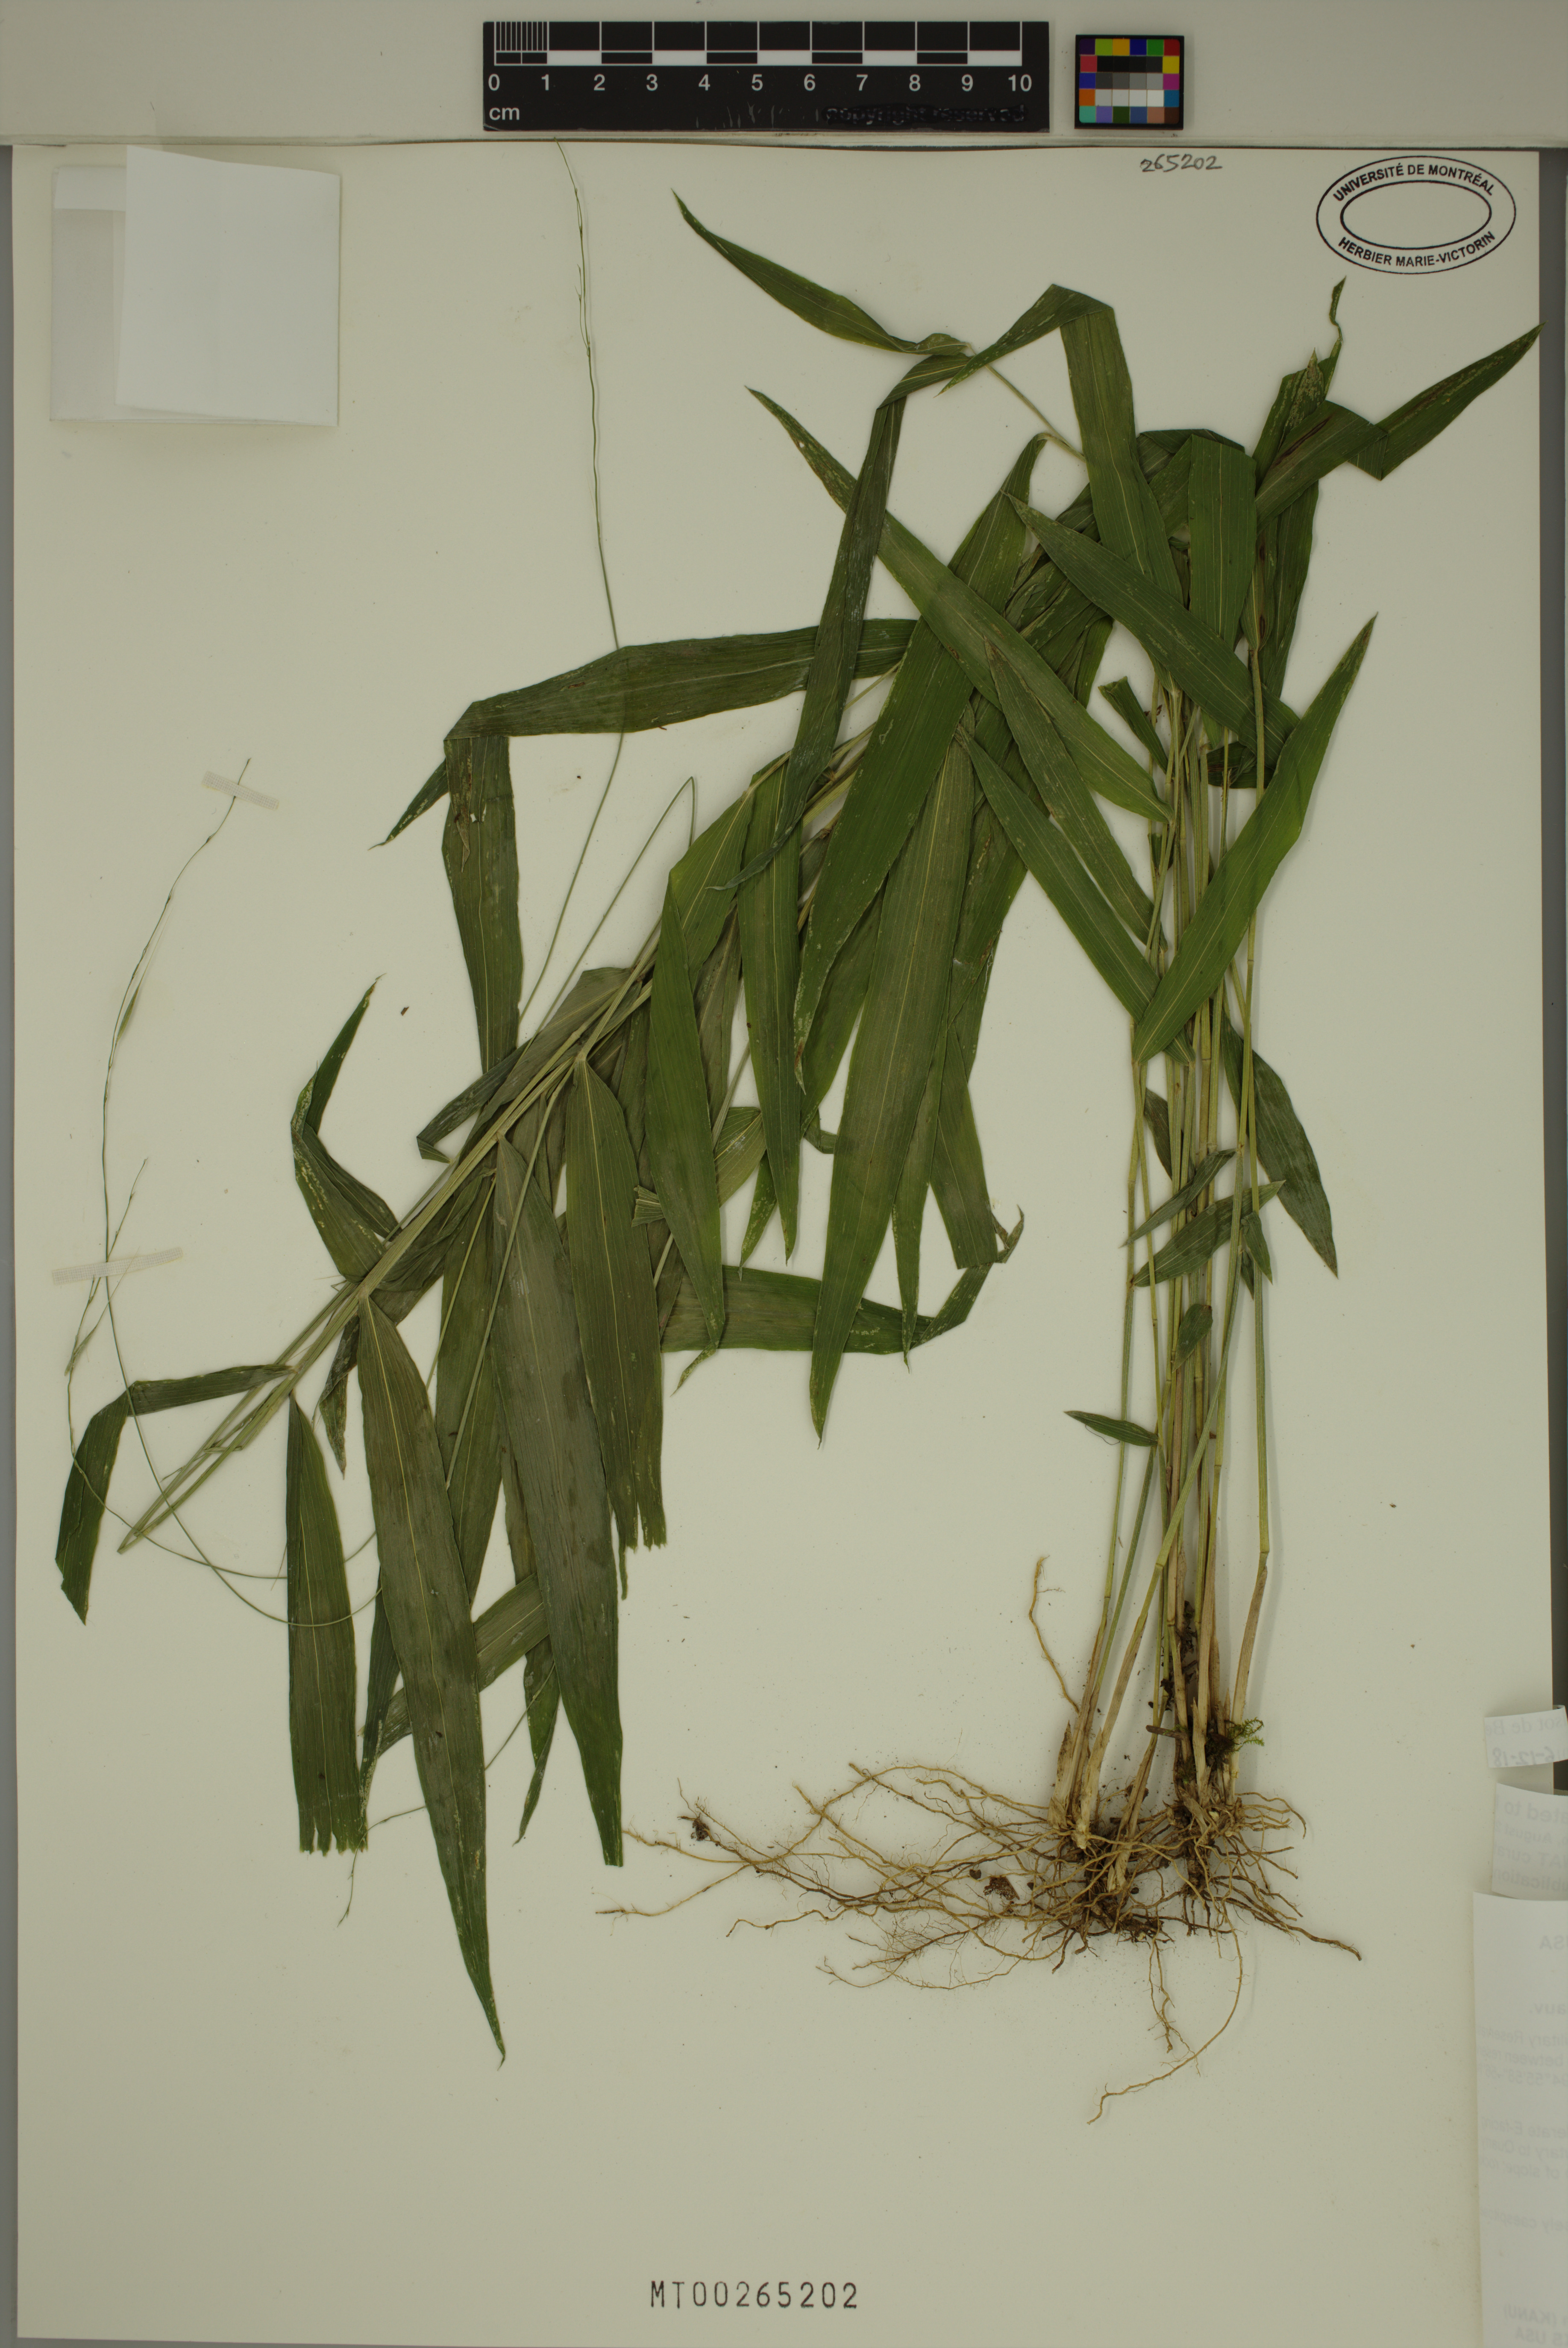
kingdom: Plantae
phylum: Tracheophyta
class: Liliopsida
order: Poales
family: Poaceae
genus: Brachyelytrum
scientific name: Brachyelytrum erectum
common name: Bearded shorthusk
